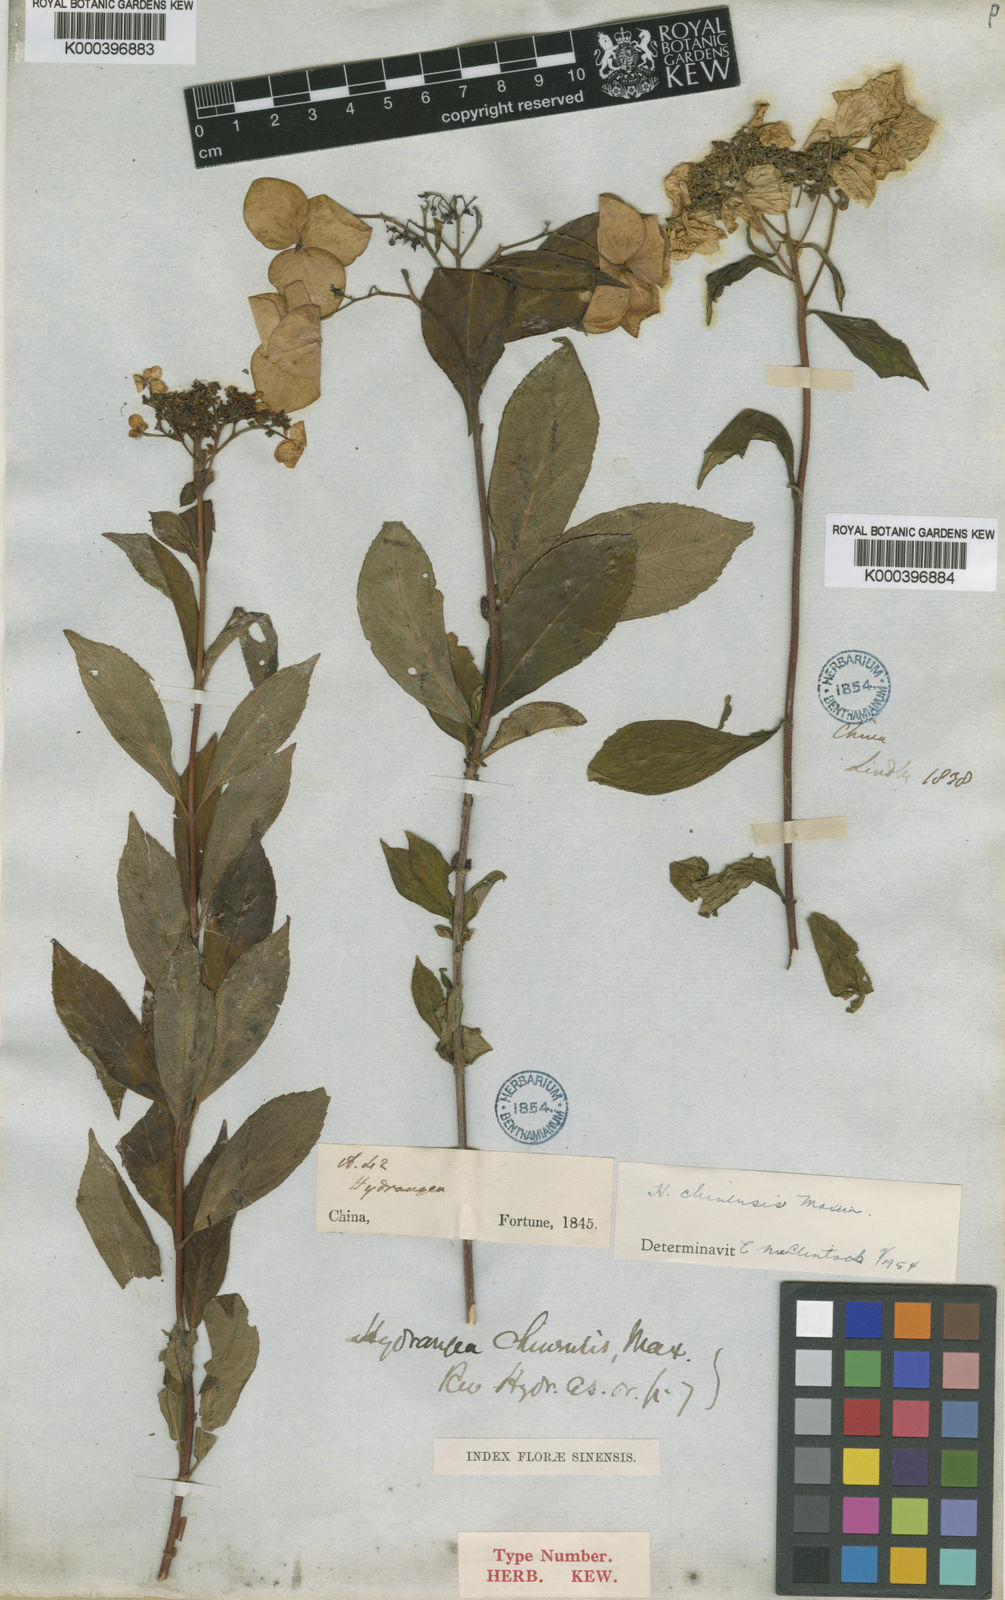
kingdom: Plantae
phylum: Tracheophyta
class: Magnoliopsida
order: Cornales
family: Hydrangeaceae
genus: Hydrangea
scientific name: Hydrangea chinensis
